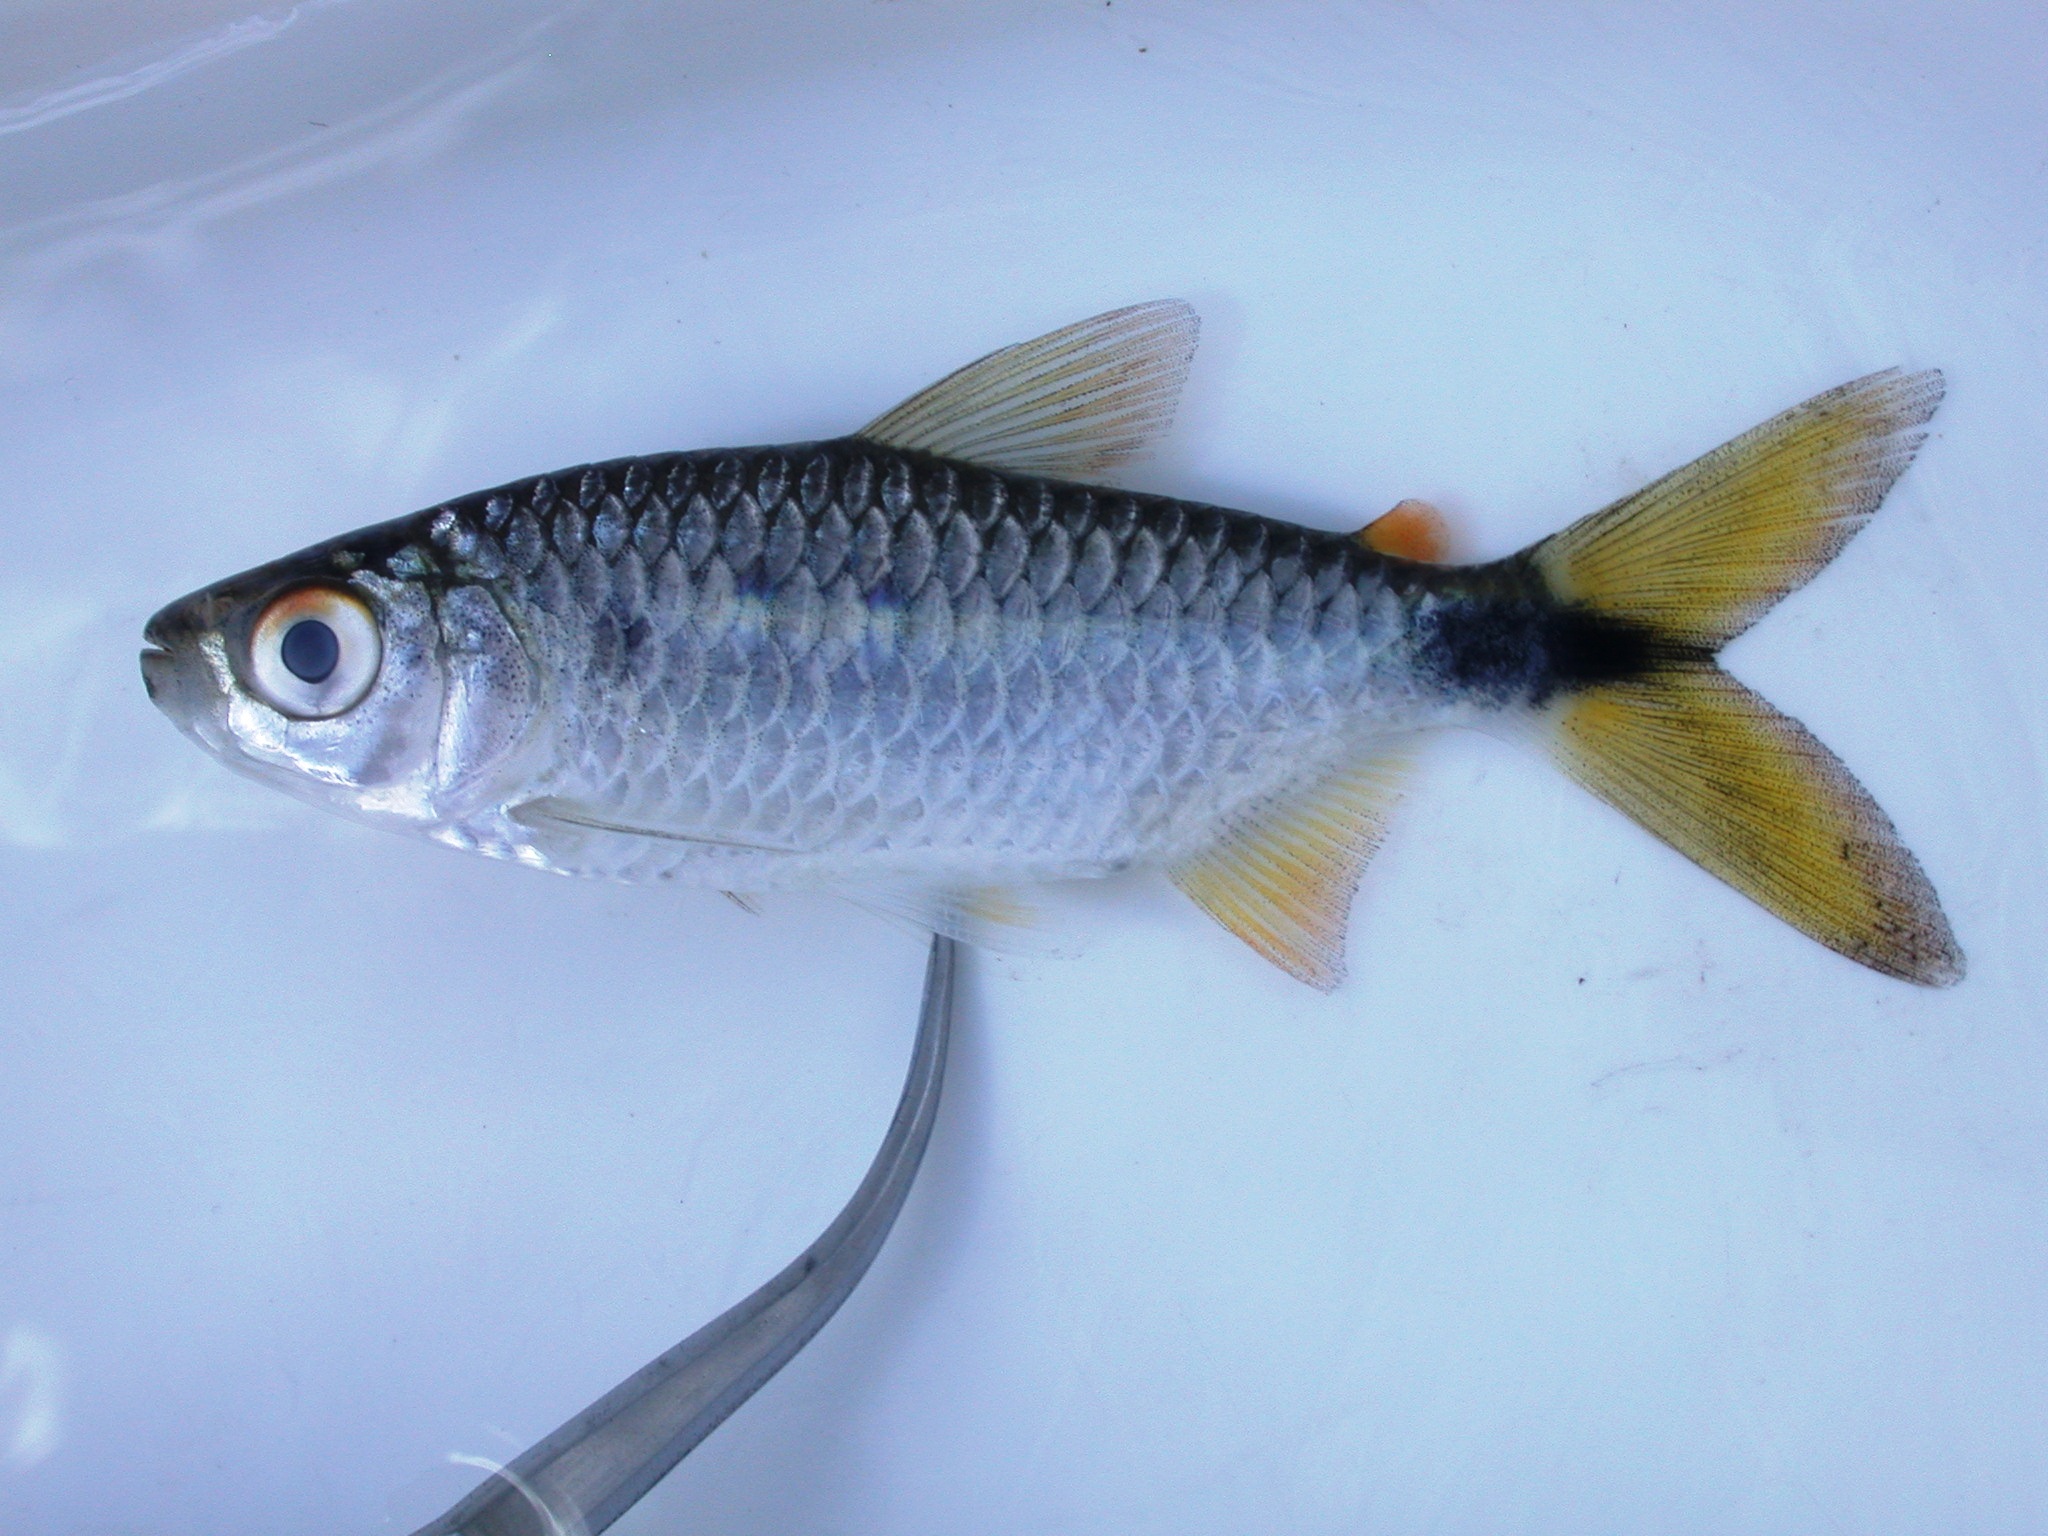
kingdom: Animalia
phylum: Chordata
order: Characiformes
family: Alestidae
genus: Brycinus
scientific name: Brycinus imberi
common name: Imberi
